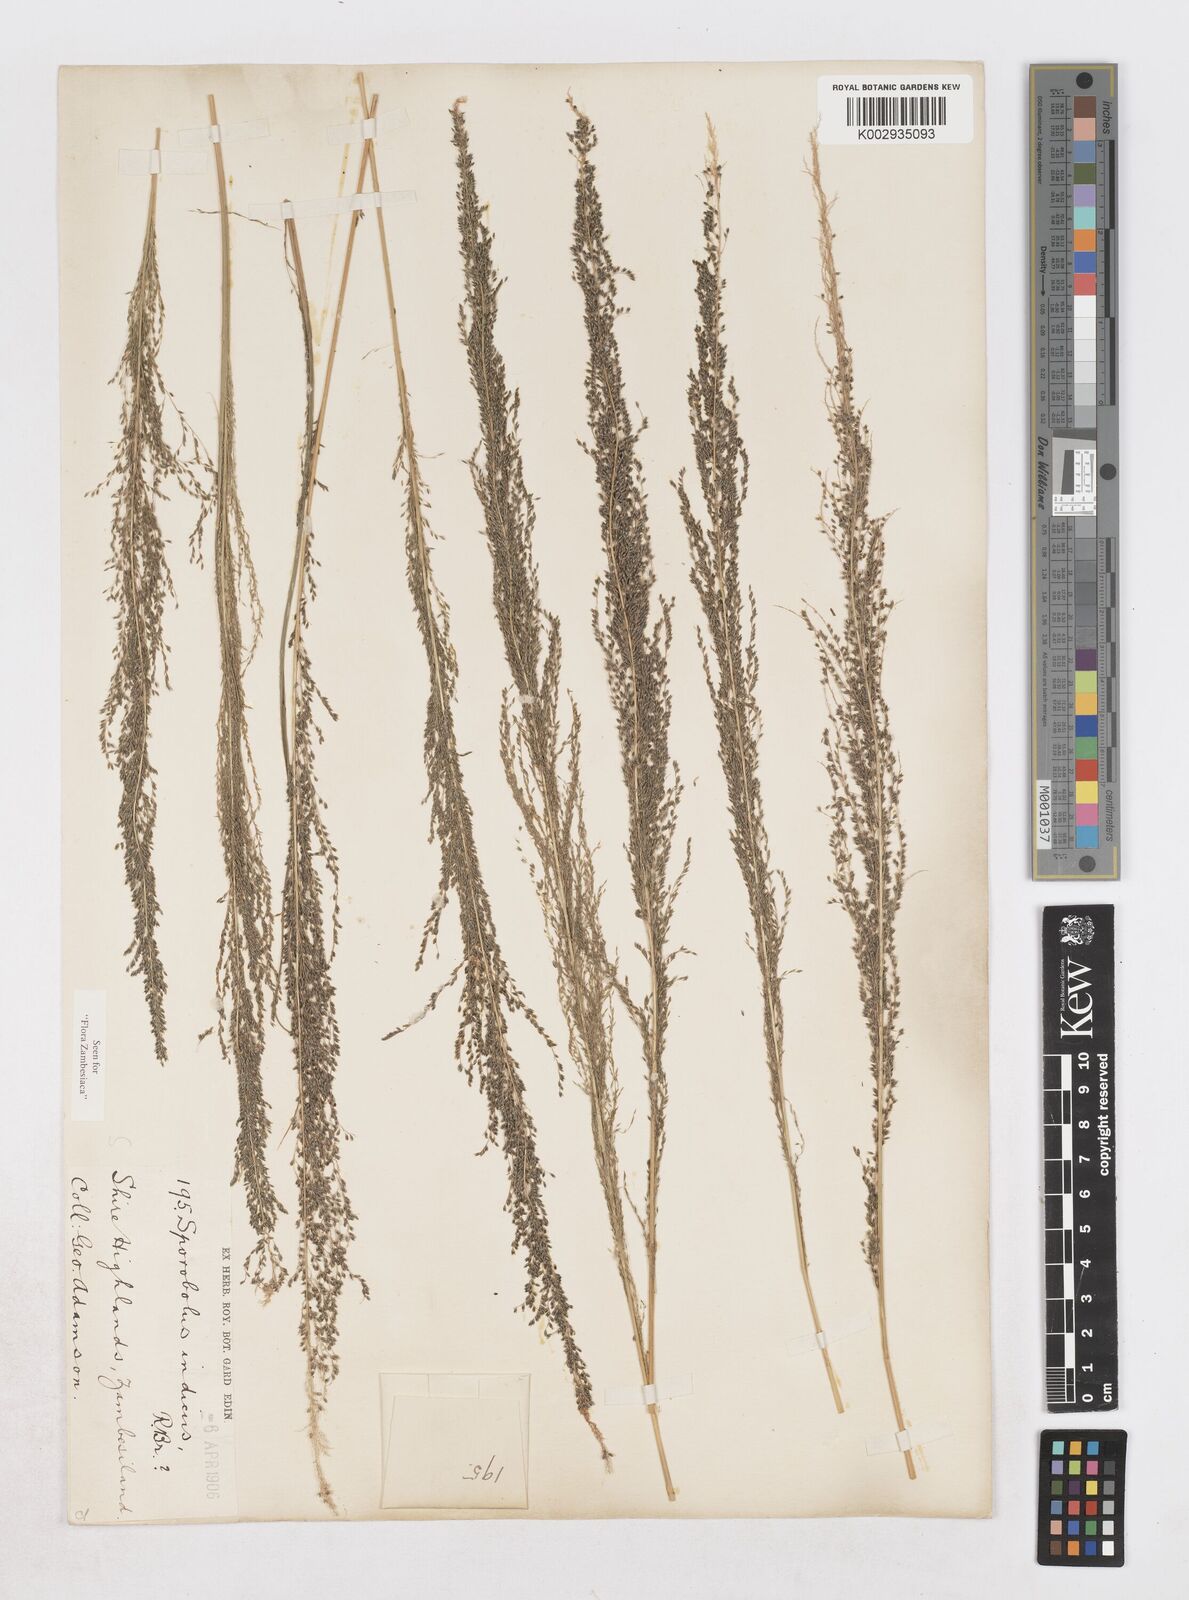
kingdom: Plantae
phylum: Tracheophyta
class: Liliopsida
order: Poales
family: Poaceae
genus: Sporobolus
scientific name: Sporobolus pyramidalis
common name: West indian dropseed
